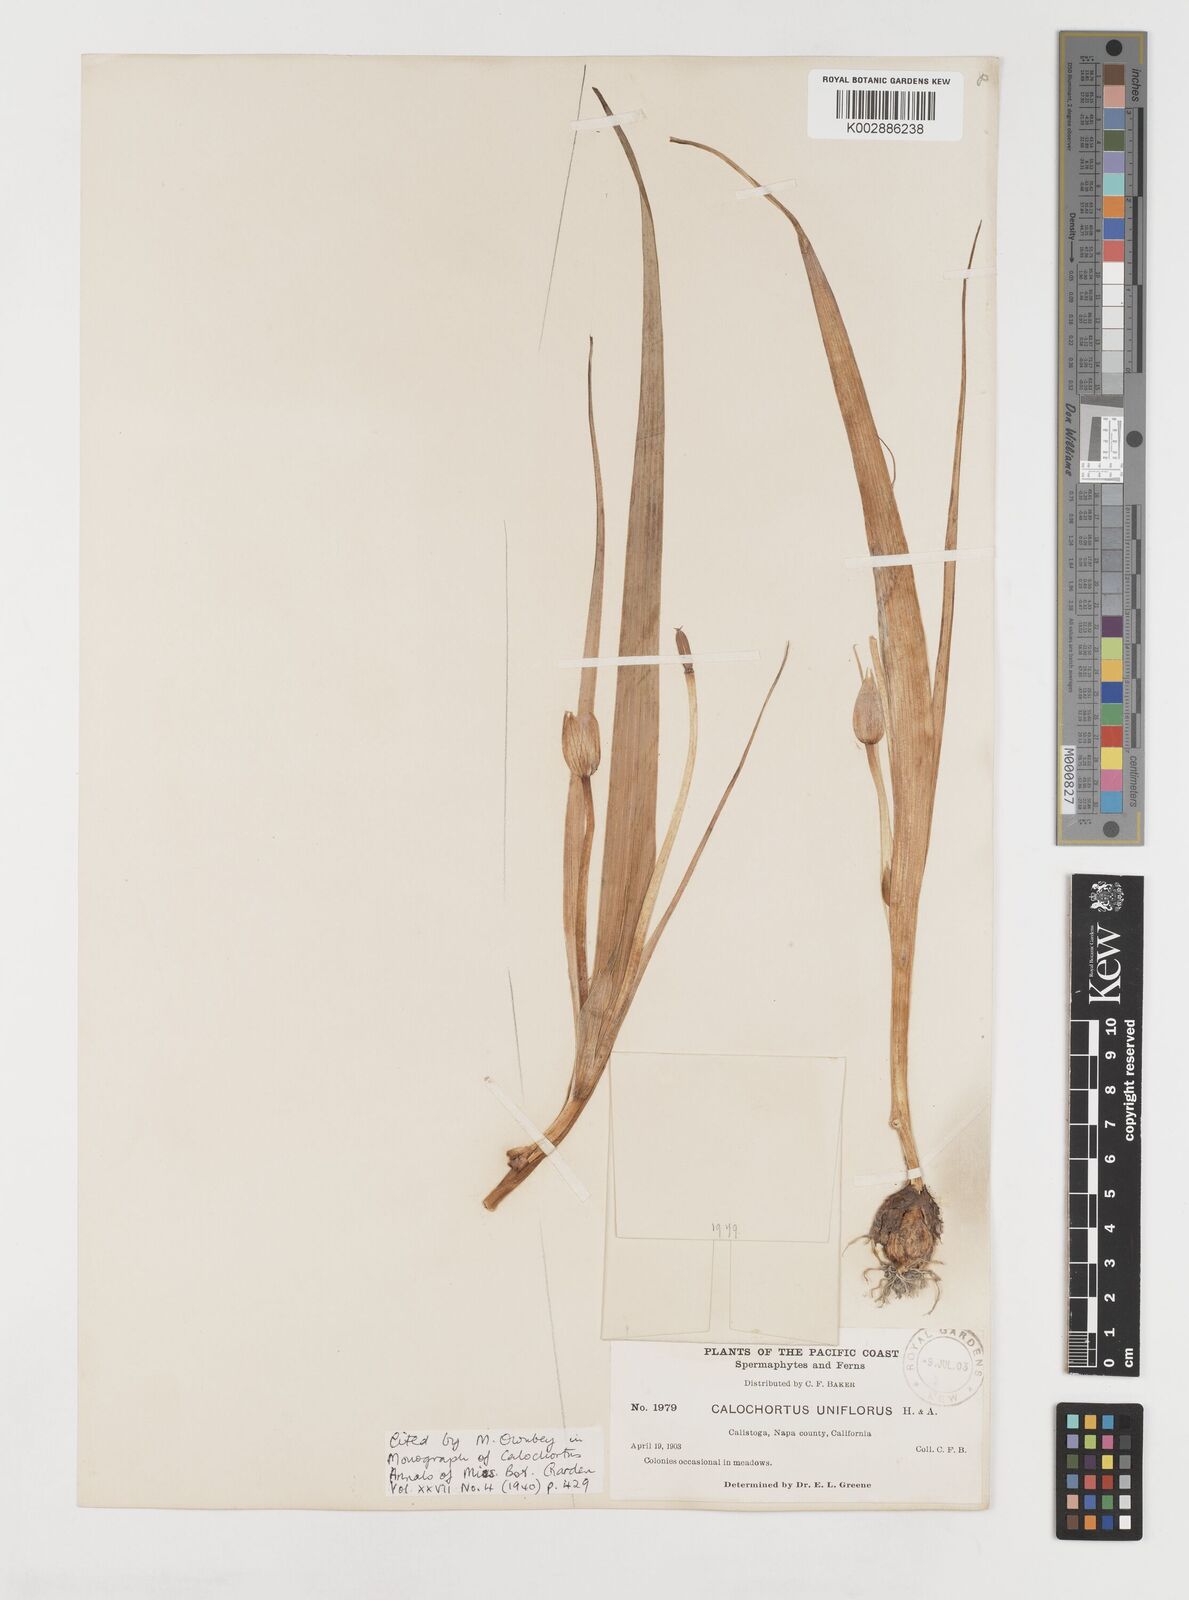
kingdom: Plantae
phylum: Tracheophyta
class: Liliopsida
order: Liliales
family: Liliaceae
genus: Calochortus
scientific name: Calochortus uniflorus
